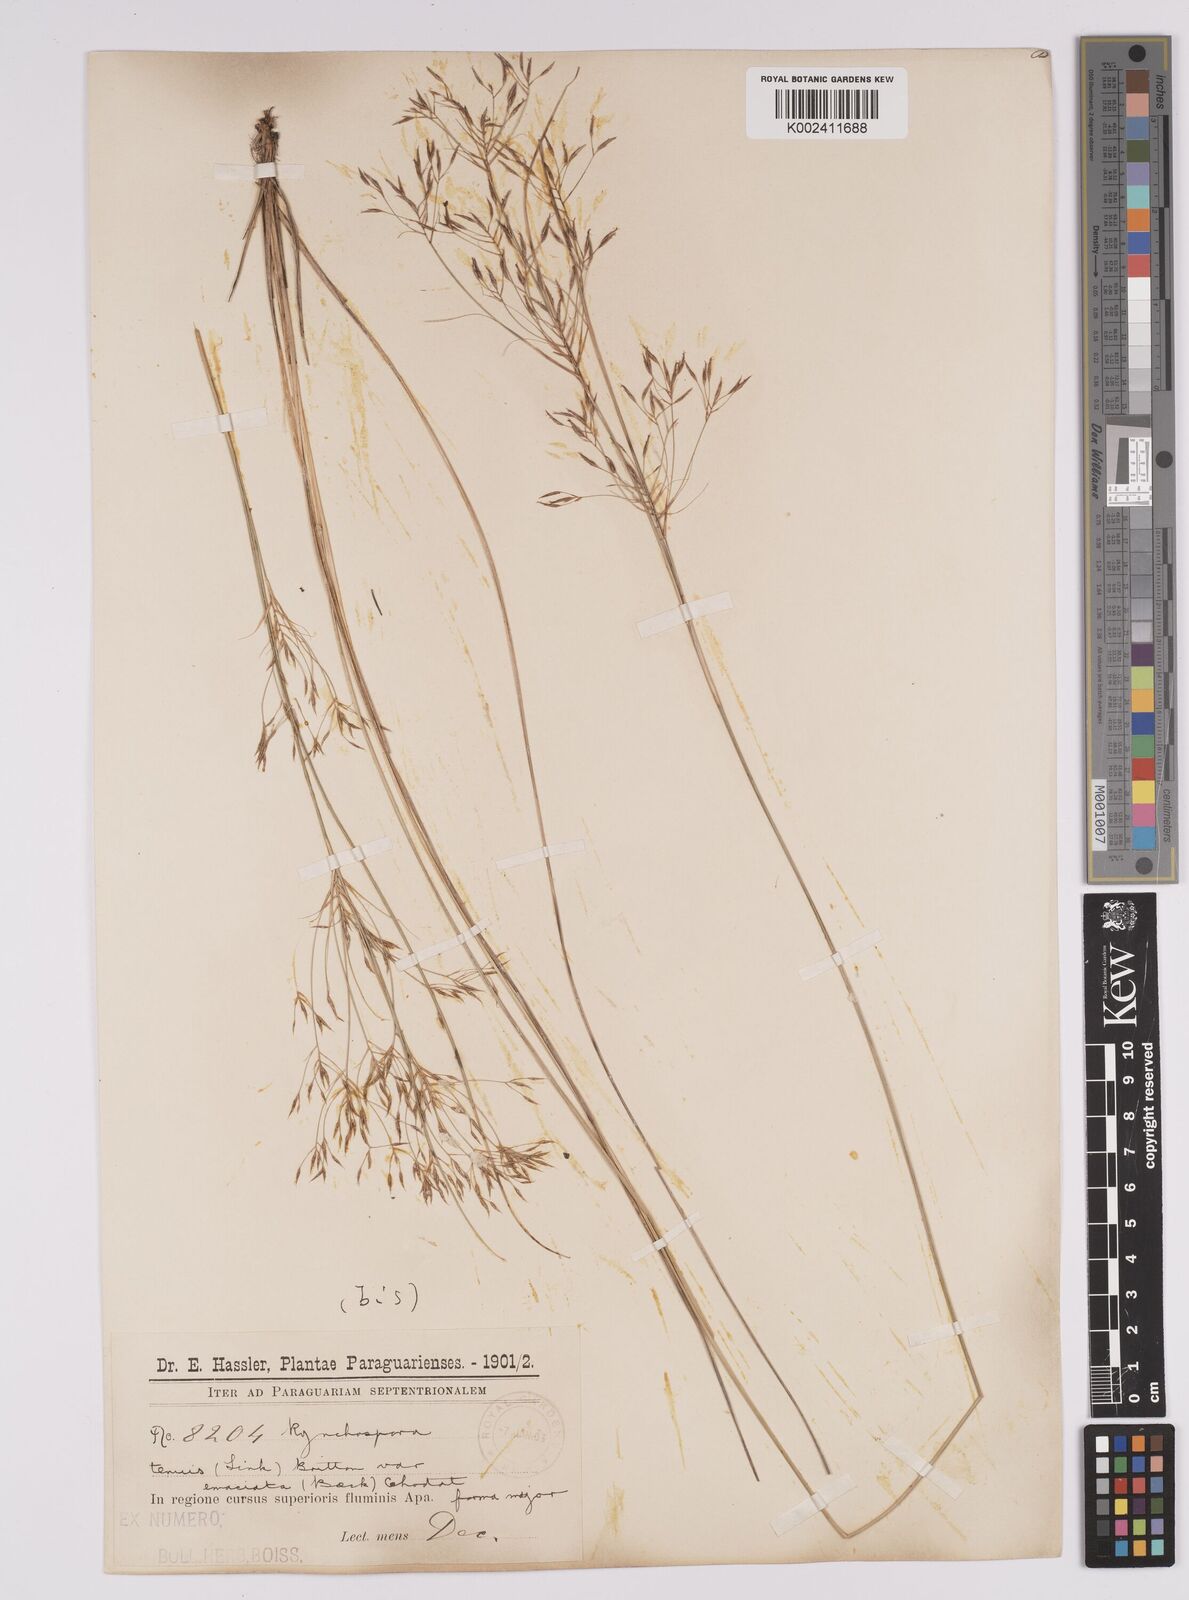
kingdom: Plantae
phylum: Tracheophyta
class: Liliopsida
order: Poales
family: Cyperaceae
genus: Rhynchospora
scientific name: Rhynchospora tenuis
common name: Quill beaksedge
